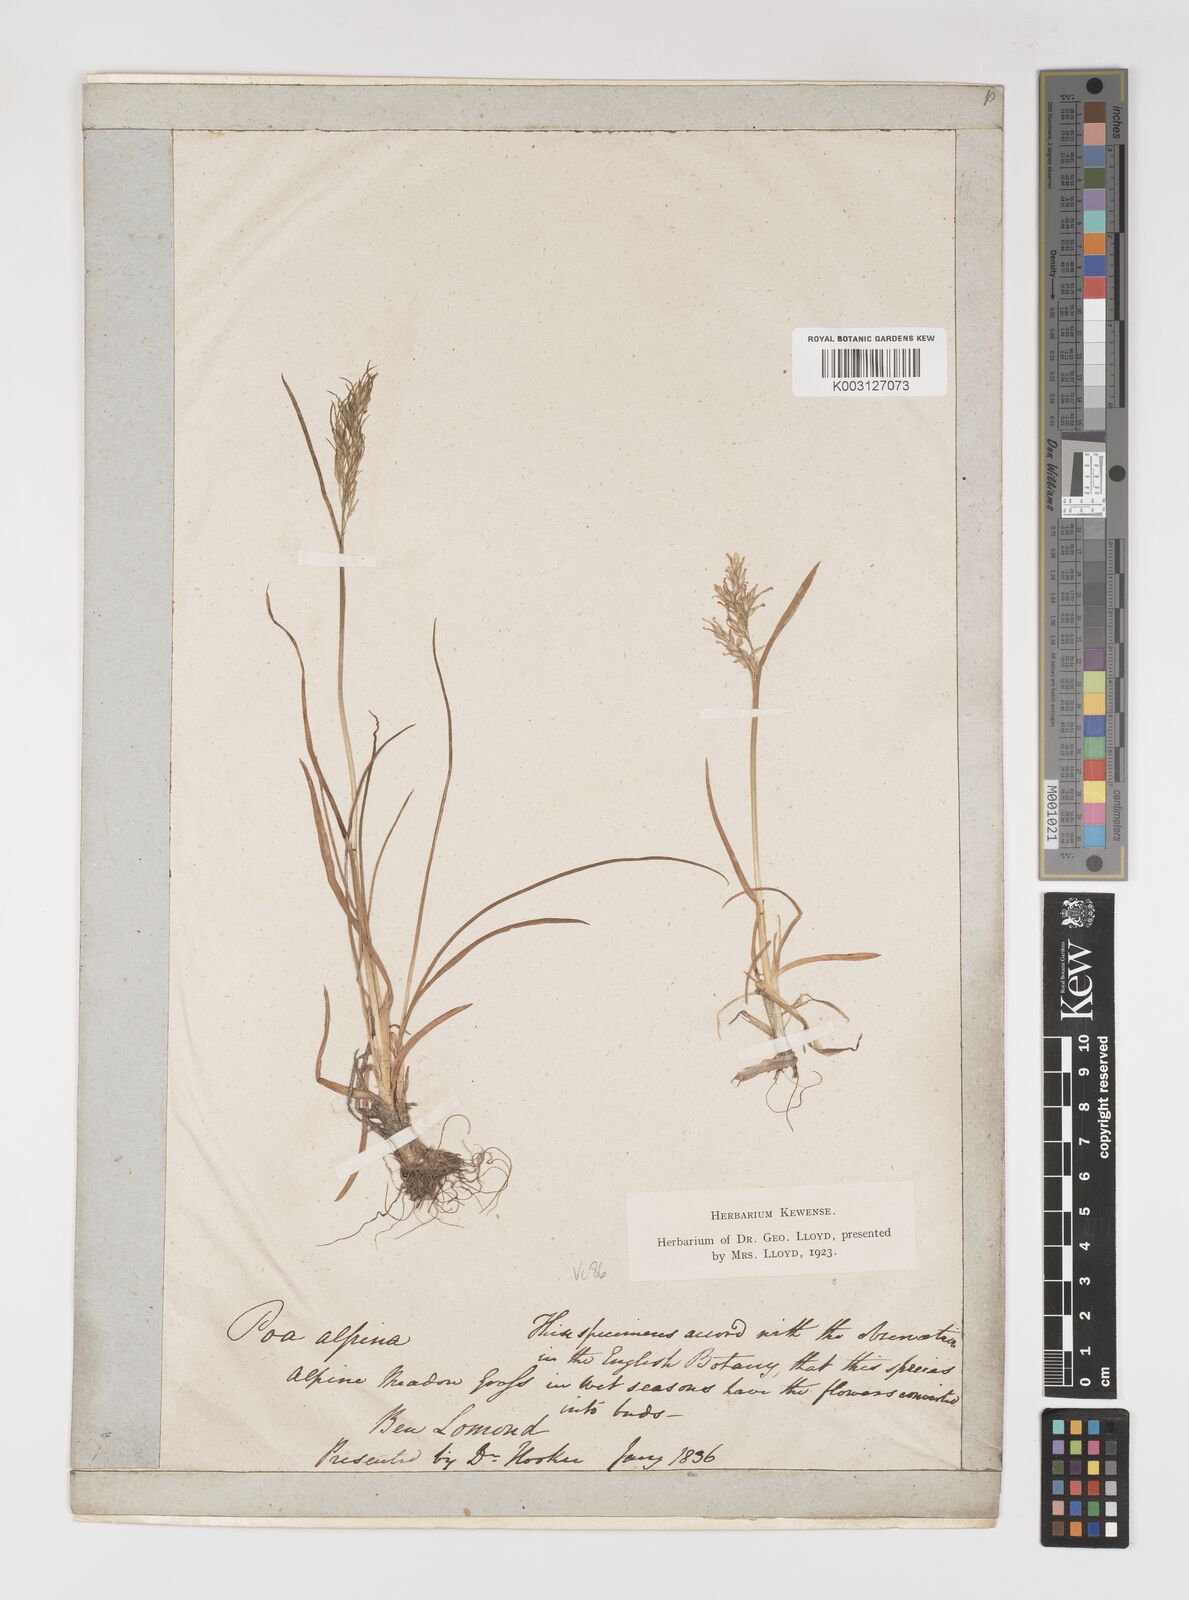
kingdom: Plantae
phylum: Tracheophyta
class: Liliopsida
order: Poales
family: Poaceae
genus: Poa
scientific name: Poa alpina
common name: Alpine bluegrass
